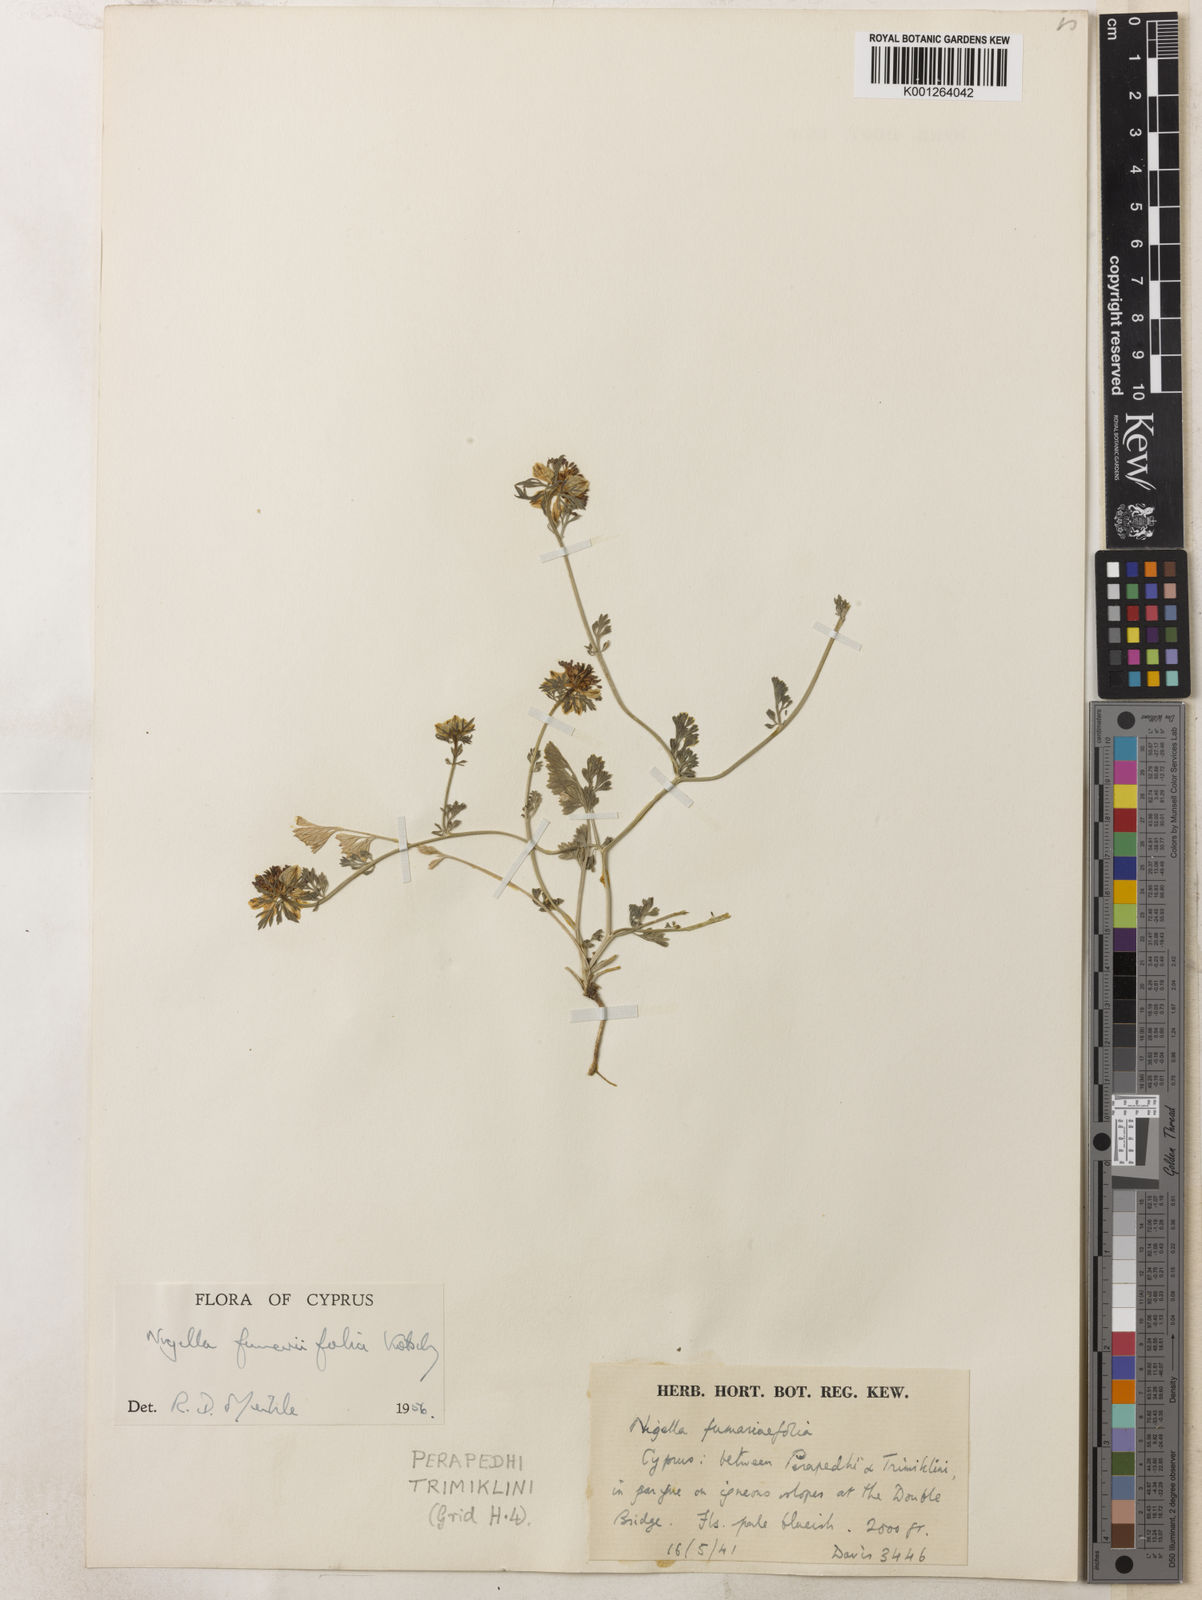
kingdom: Plantae
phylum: Tracheophyta
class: Magnoliopsida
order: Ranunculales
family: Ranunculaceae
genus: Nigella
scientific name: Nigella
